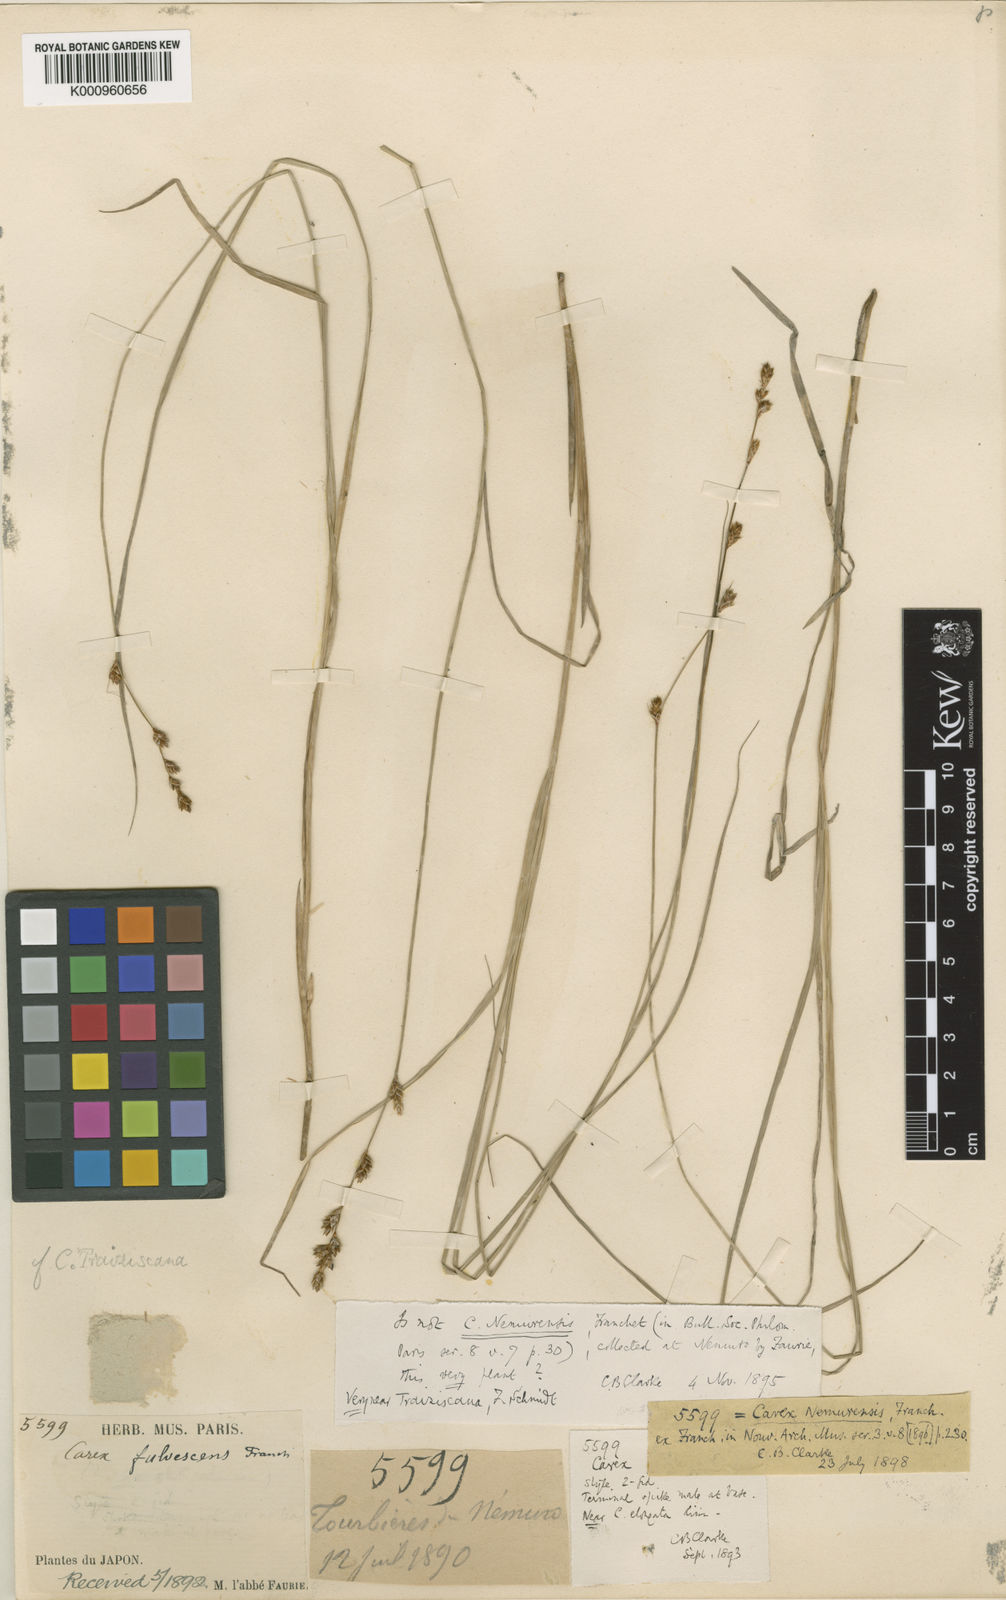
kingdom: Plantae
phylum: Tracheophyta
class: Liliopsida
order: Poales
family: Cyperaceae
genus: Carex
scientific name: Carex traiziscana
